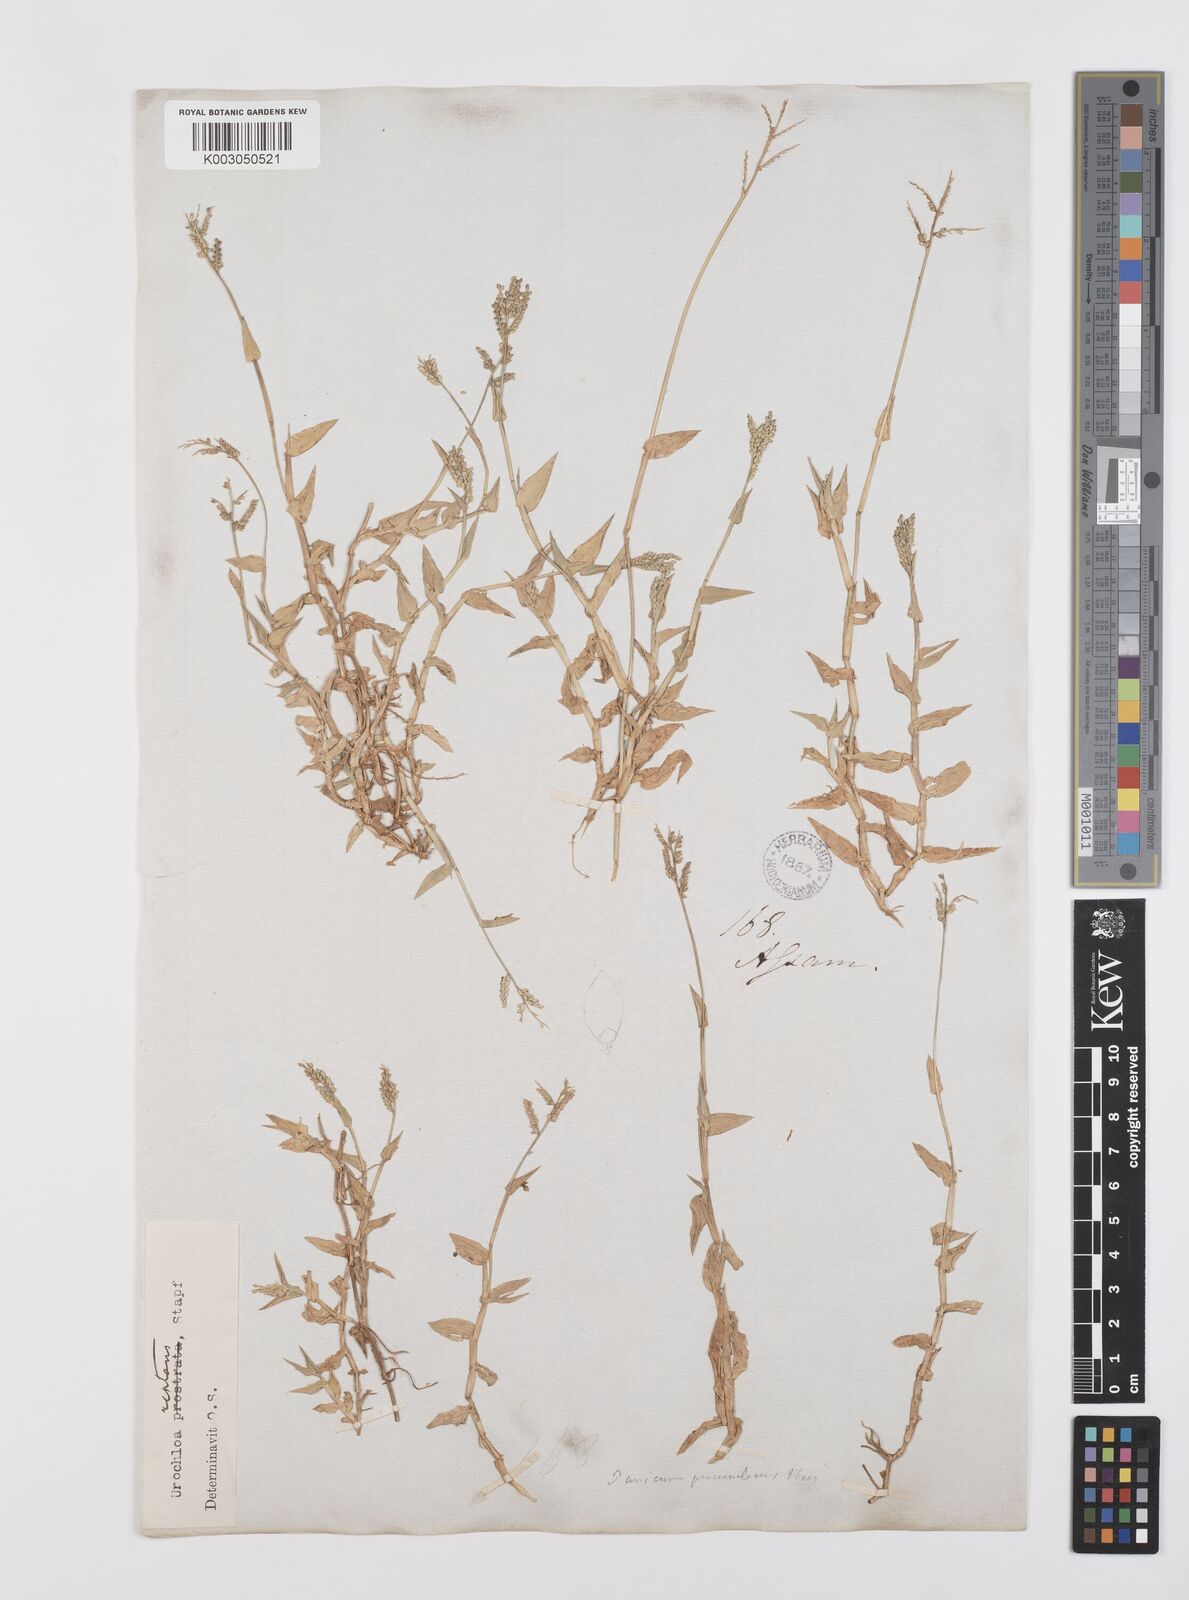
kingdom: Plantae
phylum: Tracheophyta
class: Liliopsida
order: Poales
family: Poaceae
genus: Urochloa
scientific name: Urochloa reptans
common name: Sprawling signalgrass
